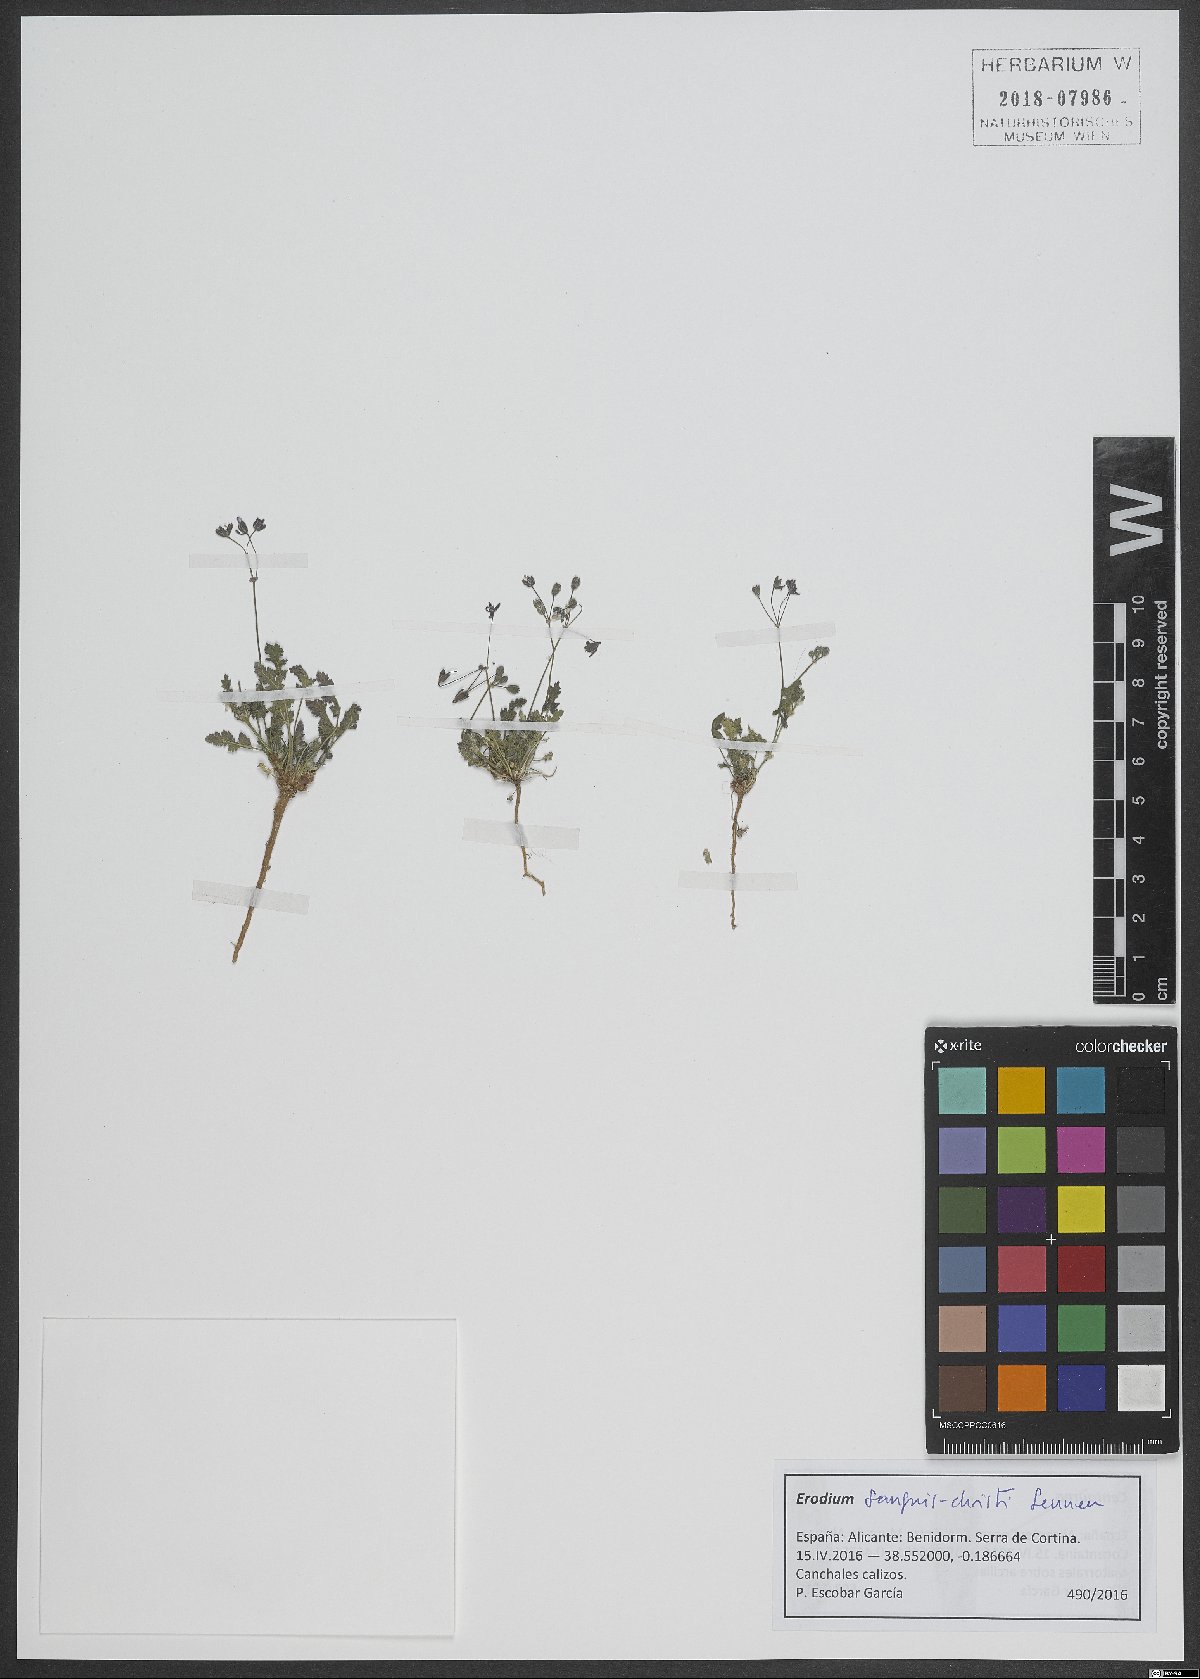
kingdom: Plantae
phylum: Tracheophyta
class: Magnoliopsida
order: Geraniales
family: Geraniaceae
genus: Erodium
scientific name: Erodium sanguis-christi
